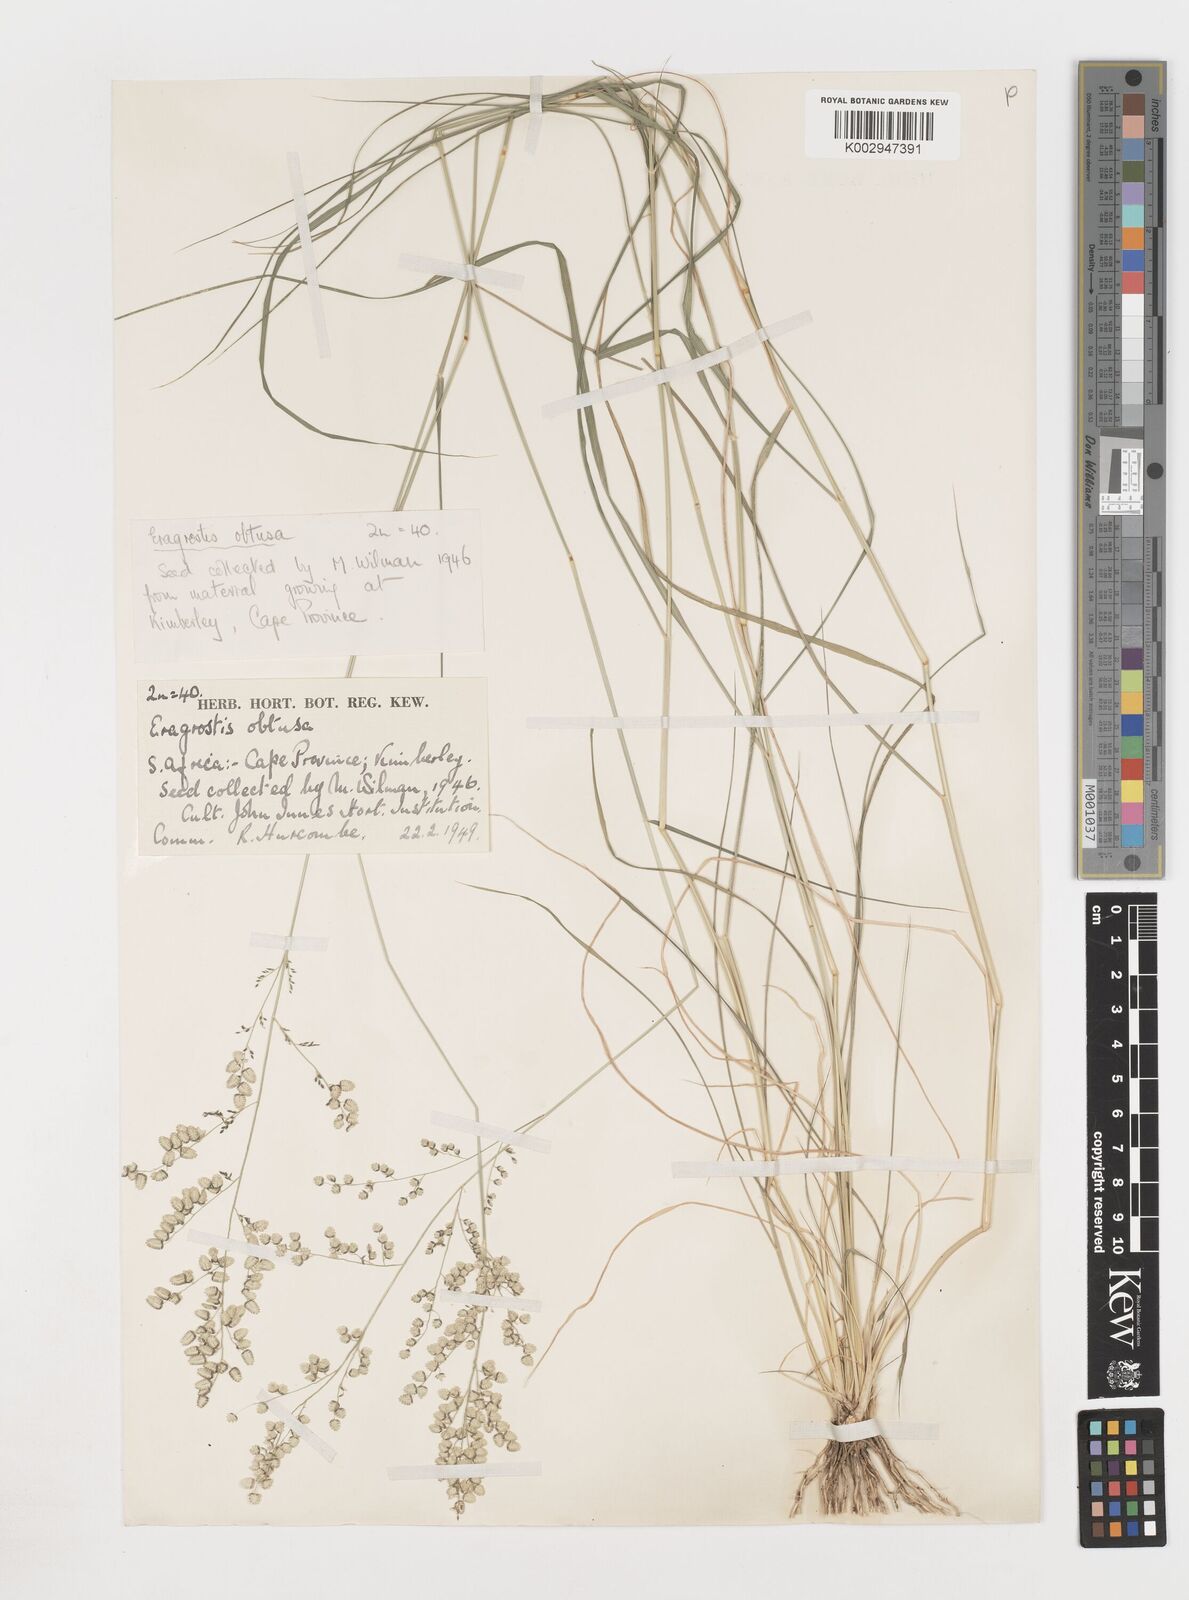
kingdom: Plantae
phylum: Tracheophyta
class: Liliopsida
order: Poales
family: Poaceae
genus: Eragrostis
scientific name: Eragrostis
